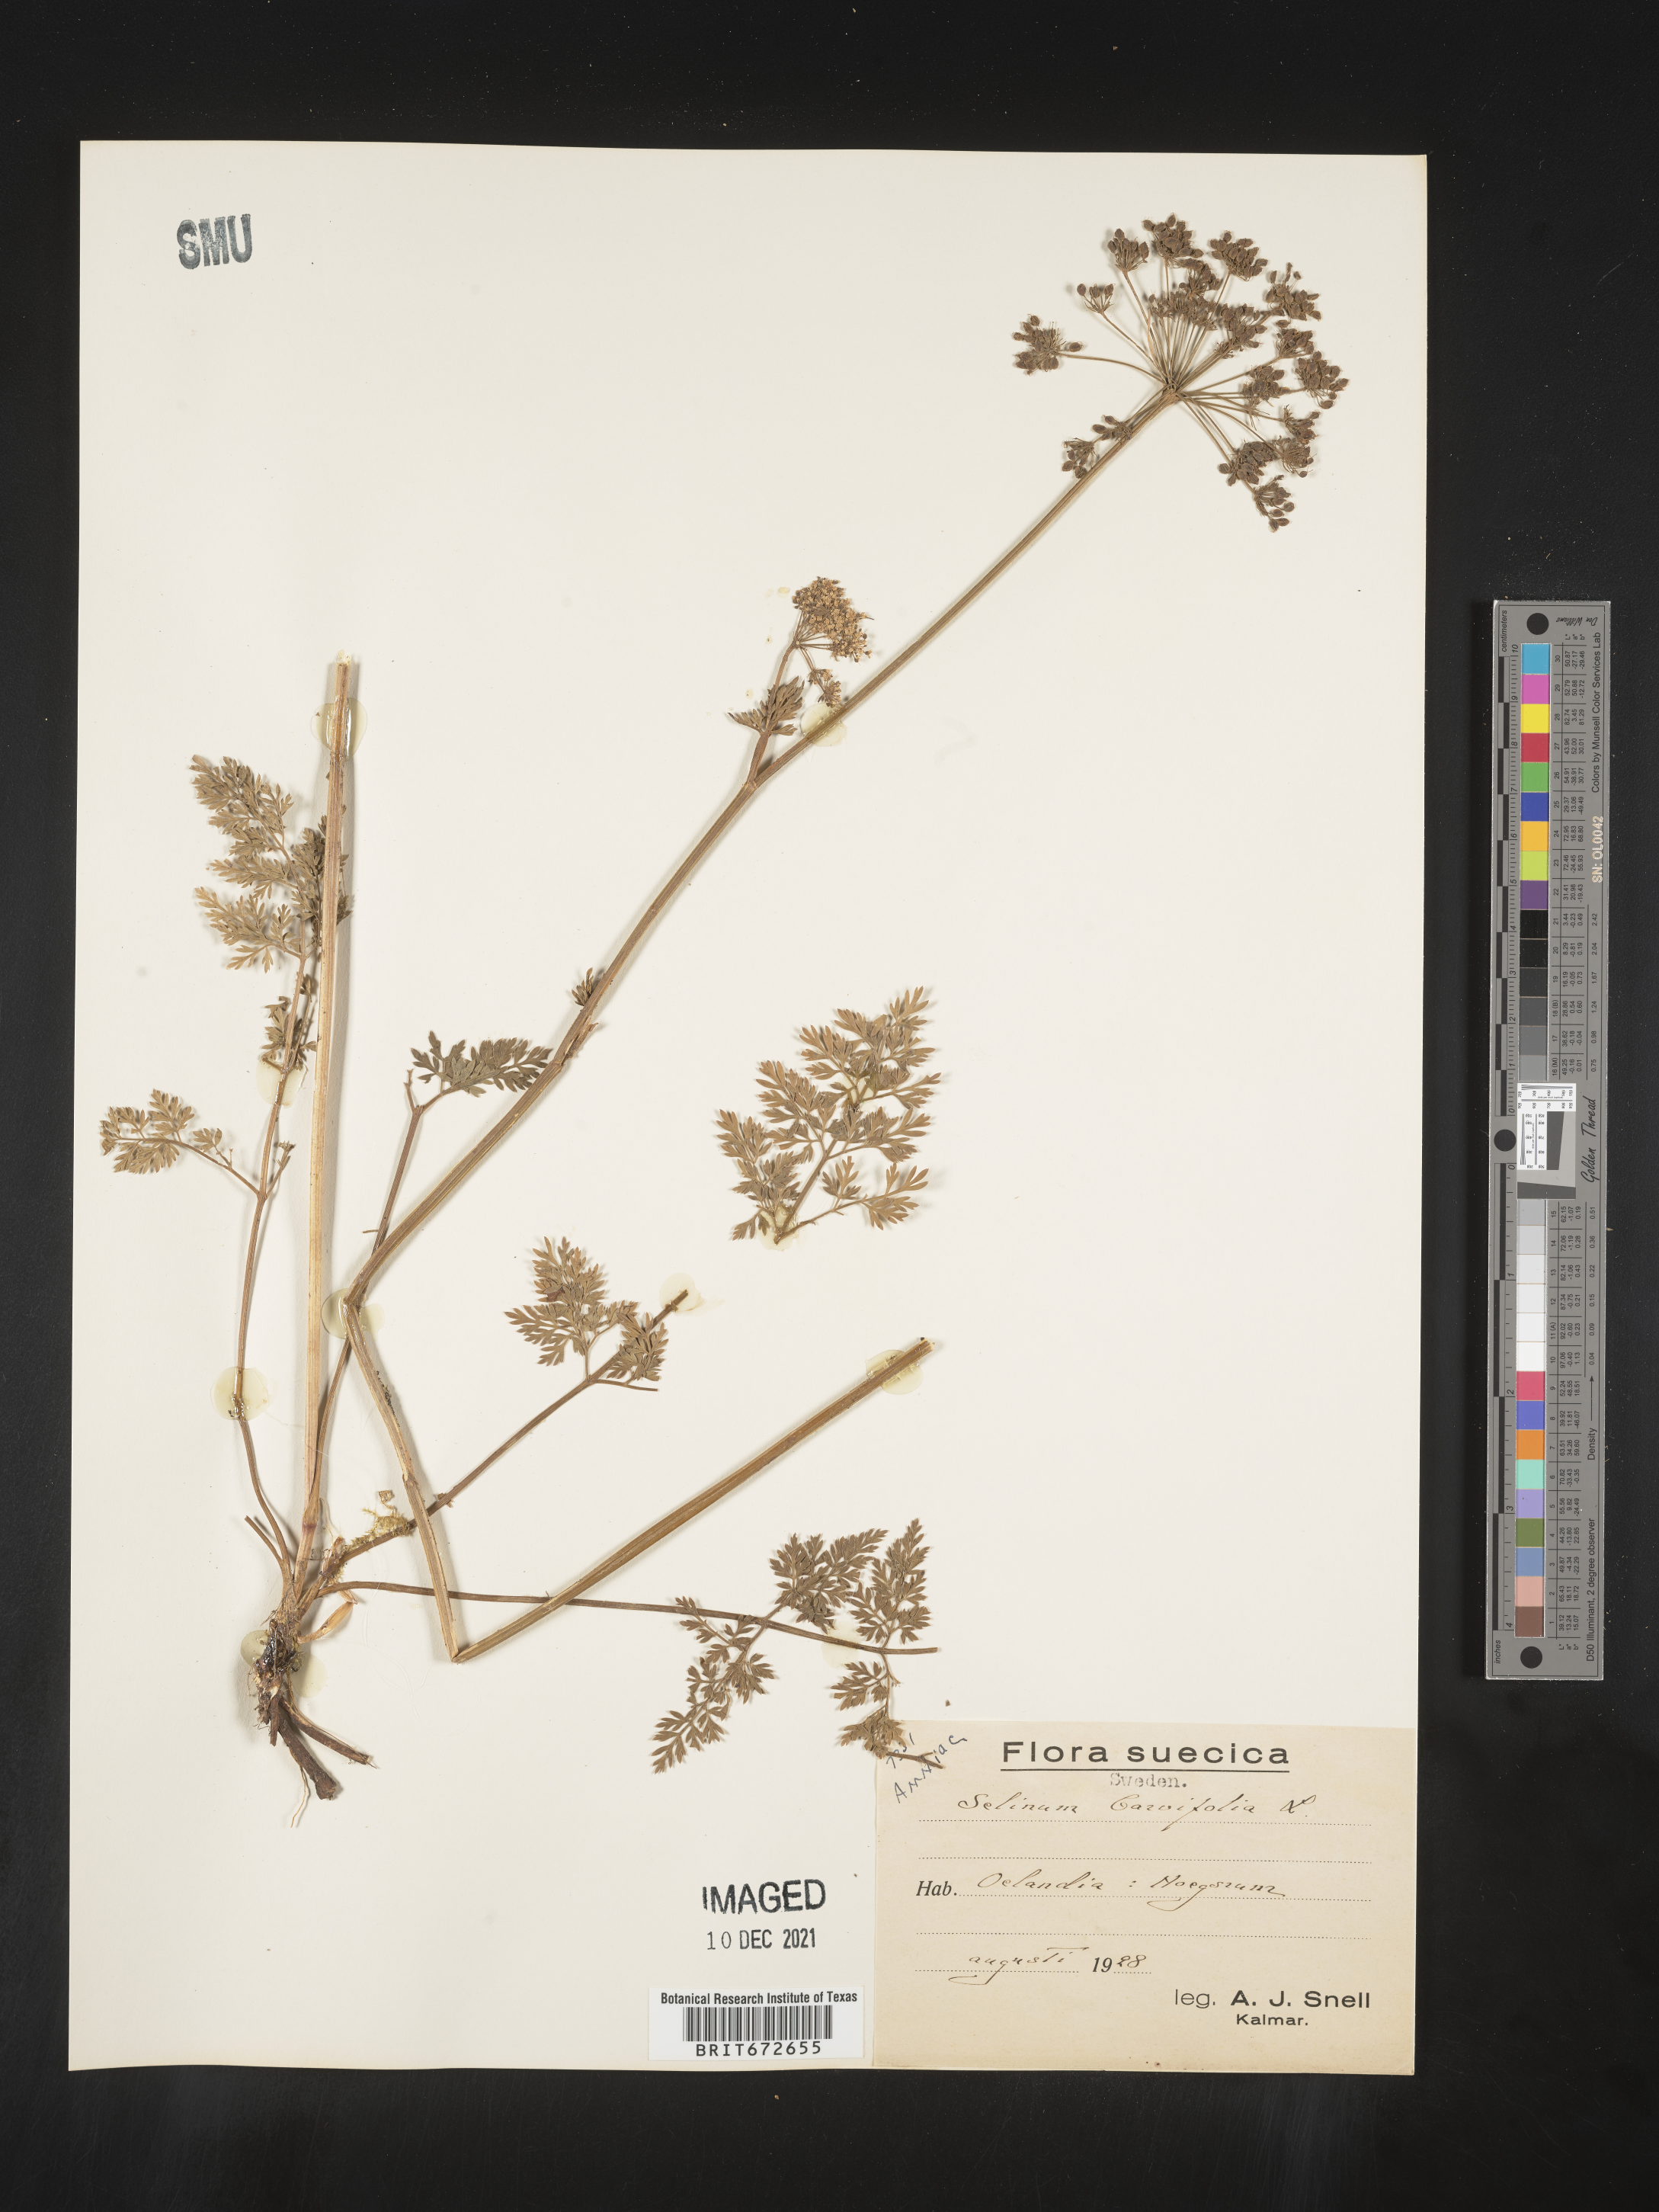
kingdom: Plantae
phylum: Tracheophyta
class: Magnoliopsida
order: Apiales
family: Apiaceae
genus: Selinum
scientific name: Selinum
